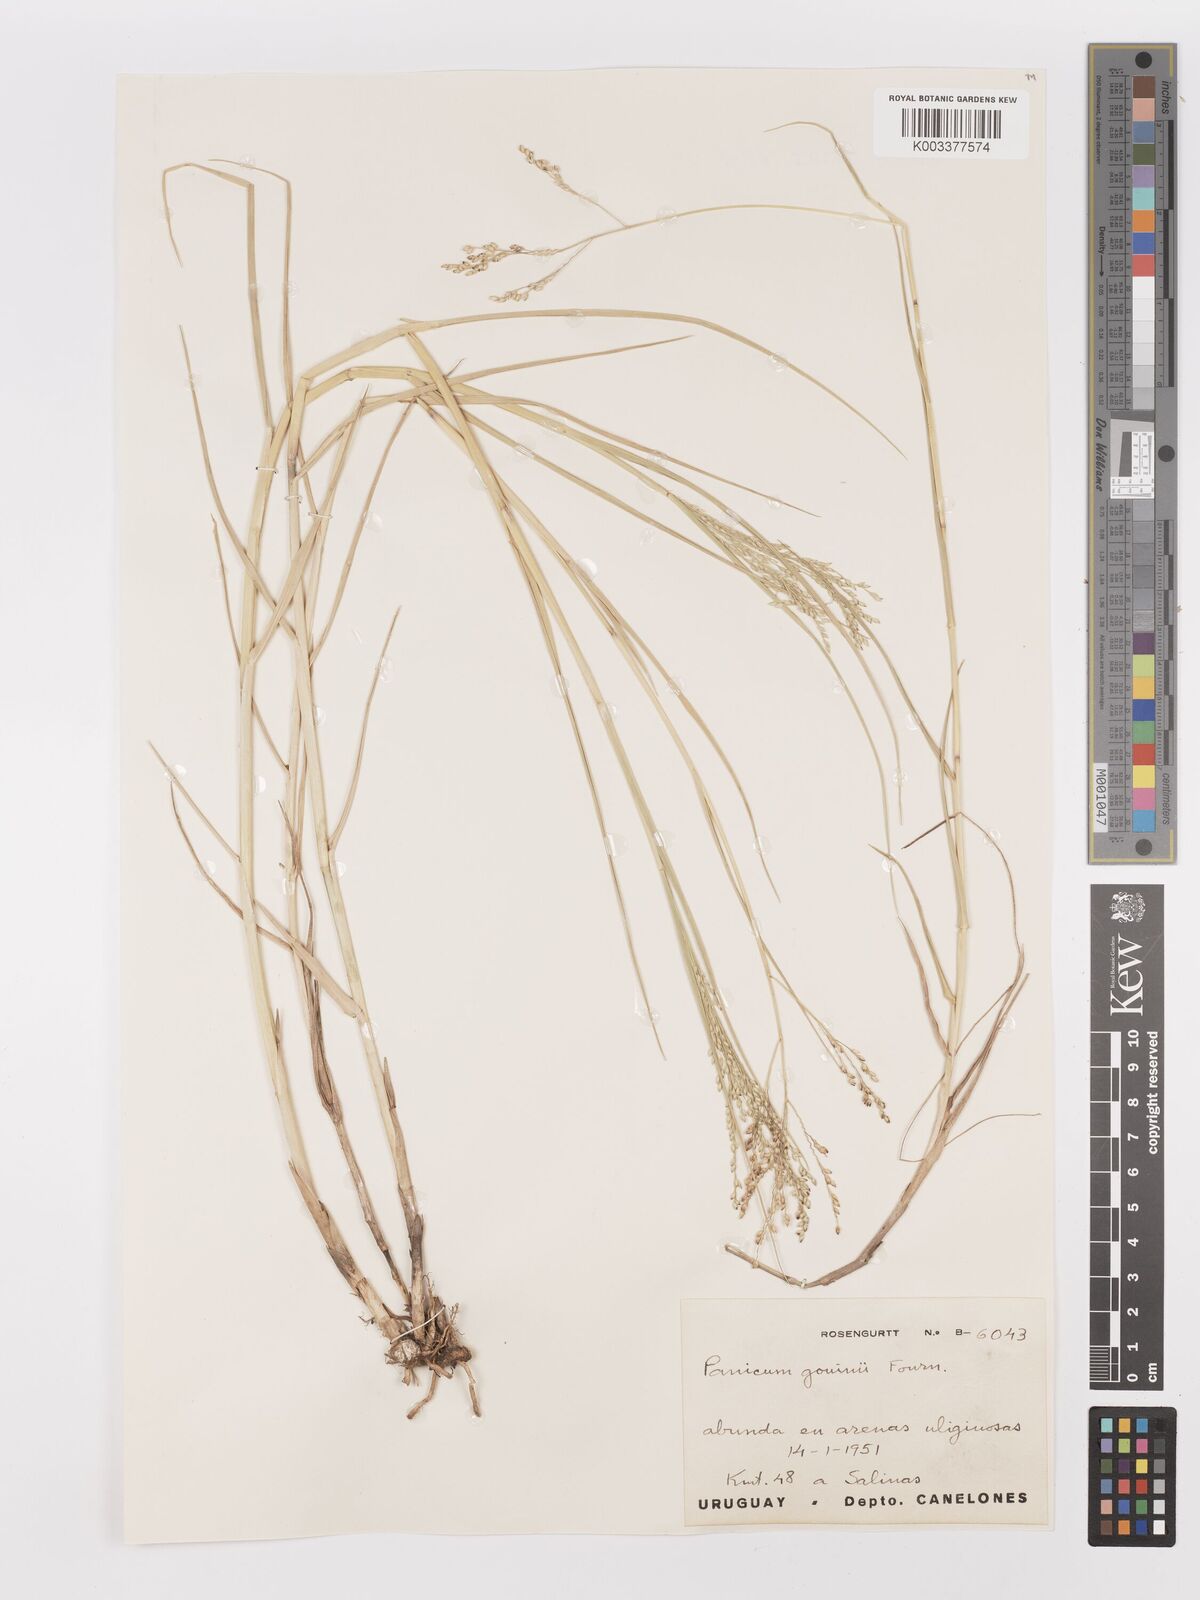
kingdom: Plantae
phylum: Tracheophyta
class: Liliopsida
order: Poales
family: Poaceae
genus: Urochloa
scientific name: Urochloa rudis
